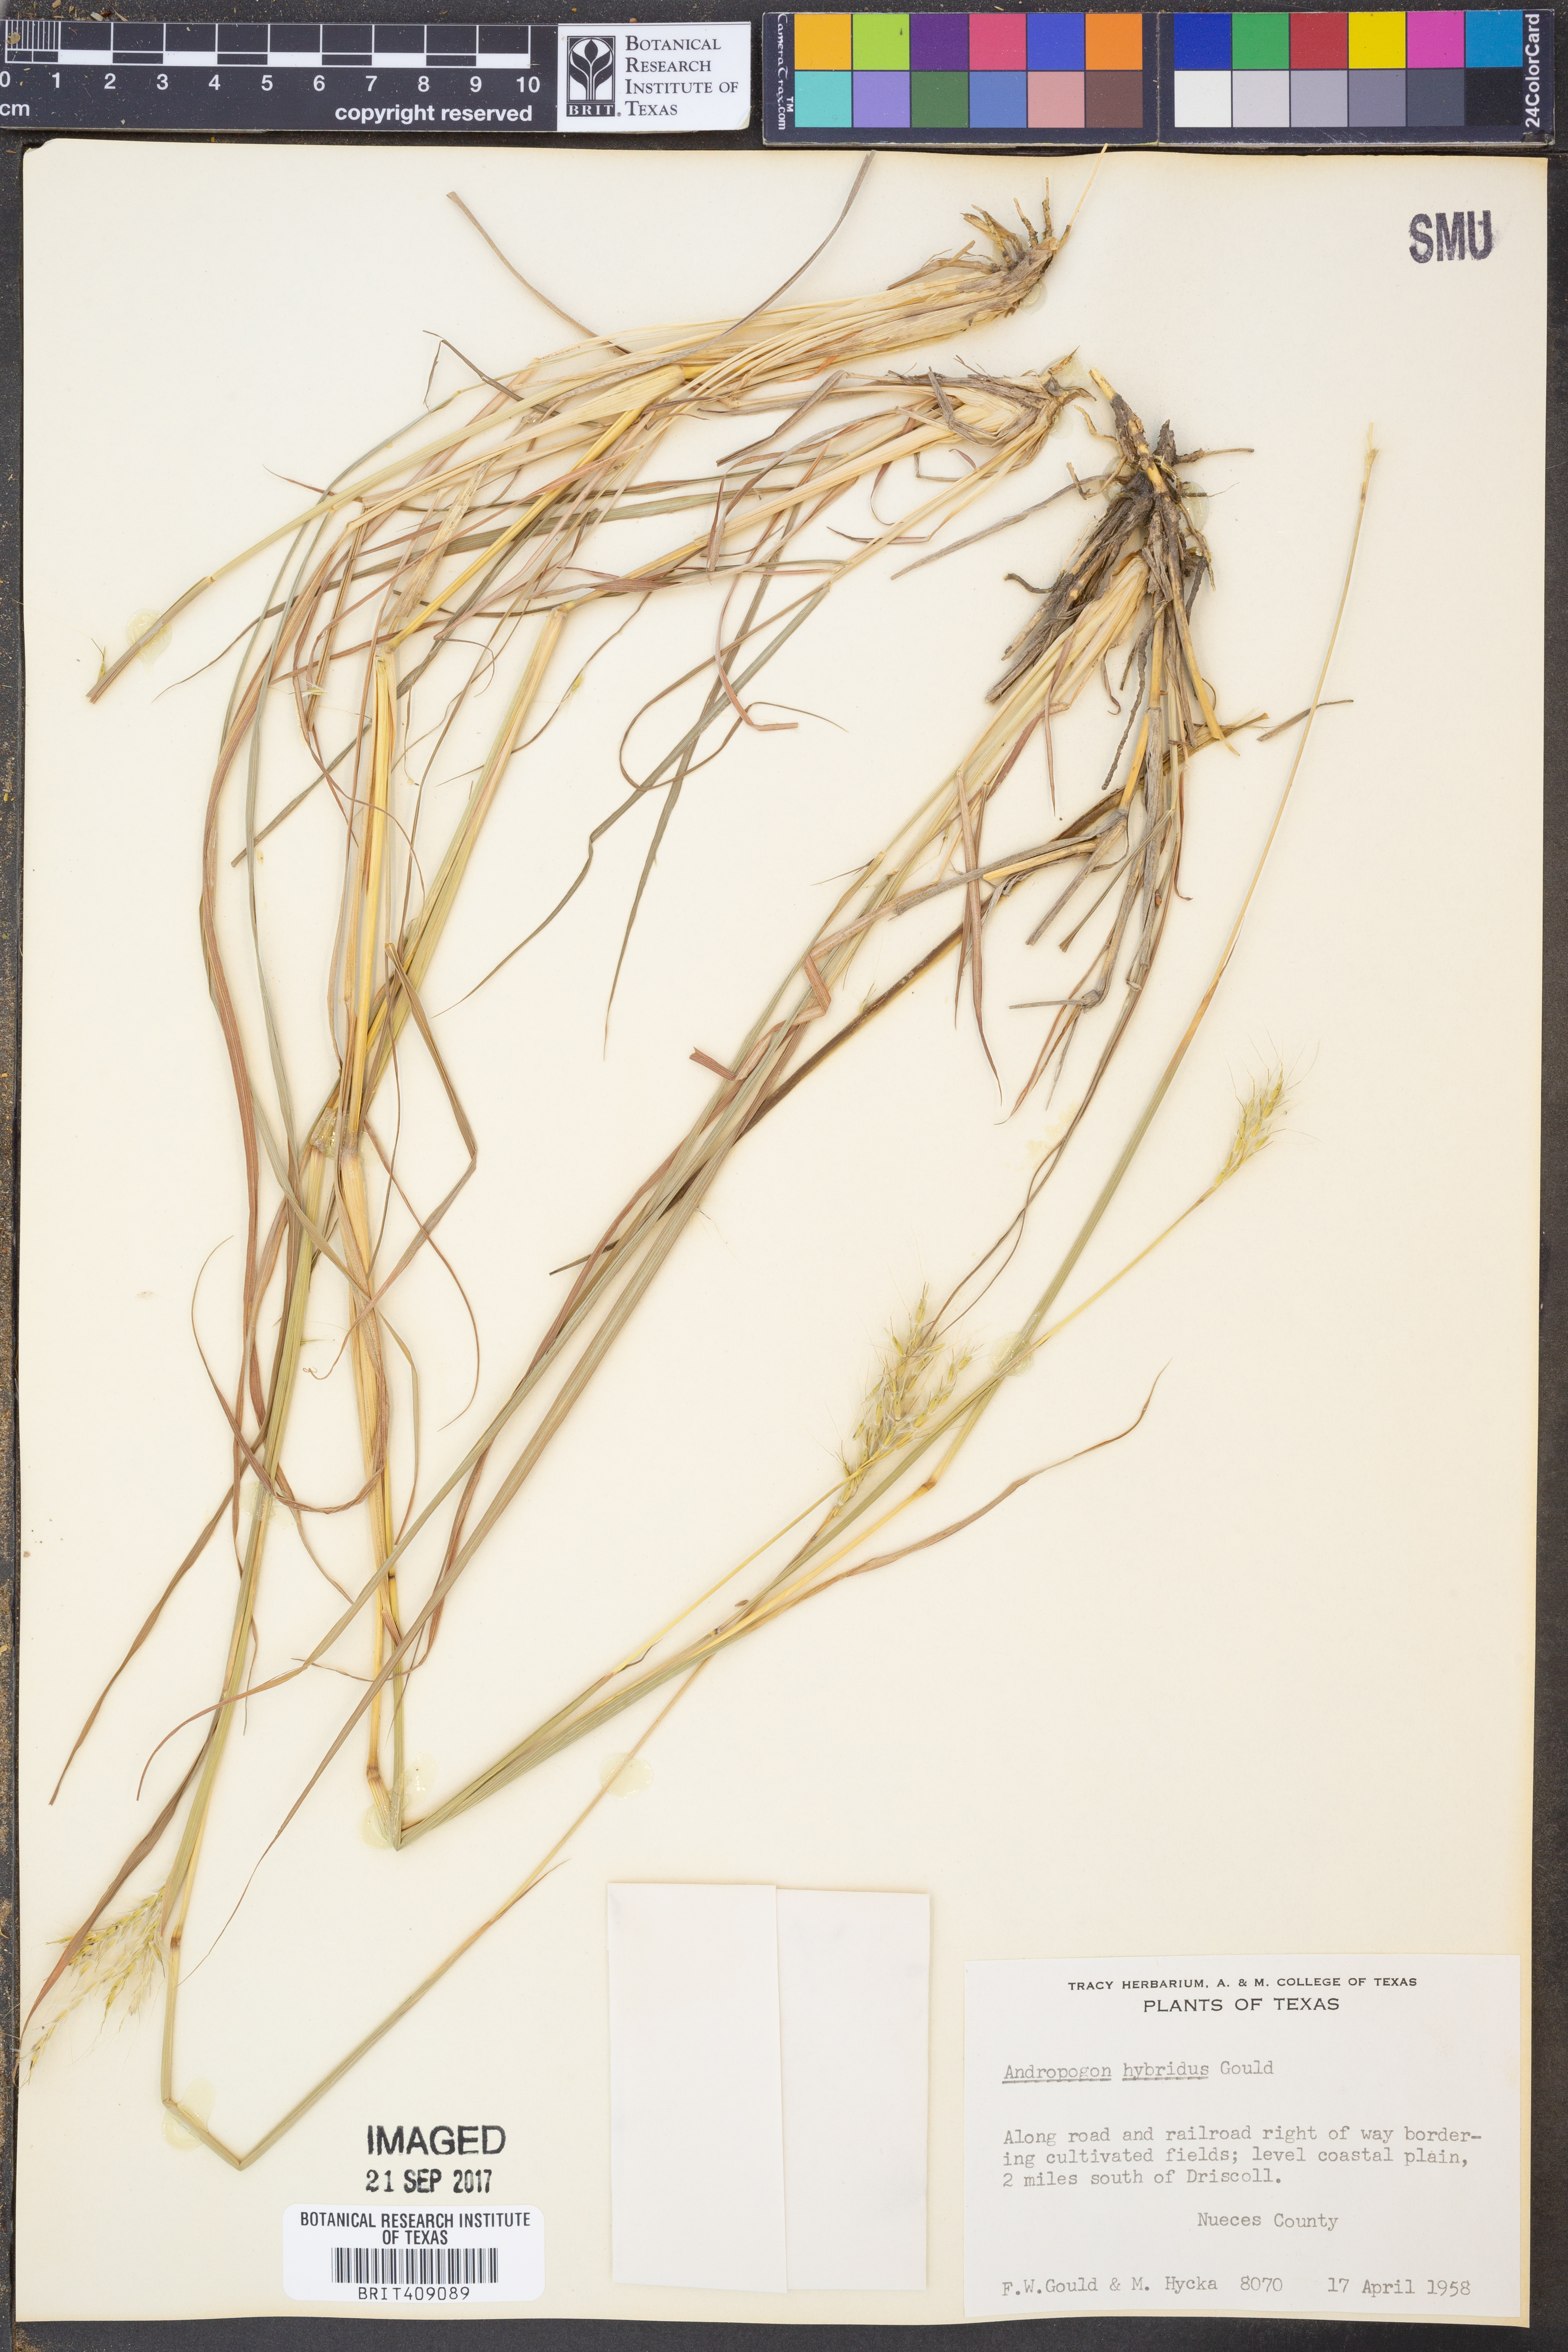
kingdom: Plantae
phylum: Tracheophyta
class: Liliopsida
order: Poales
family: Poaceae
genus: Bothriochloa
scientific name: Bothriochloa hybrida
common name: Hybrid bluestem
